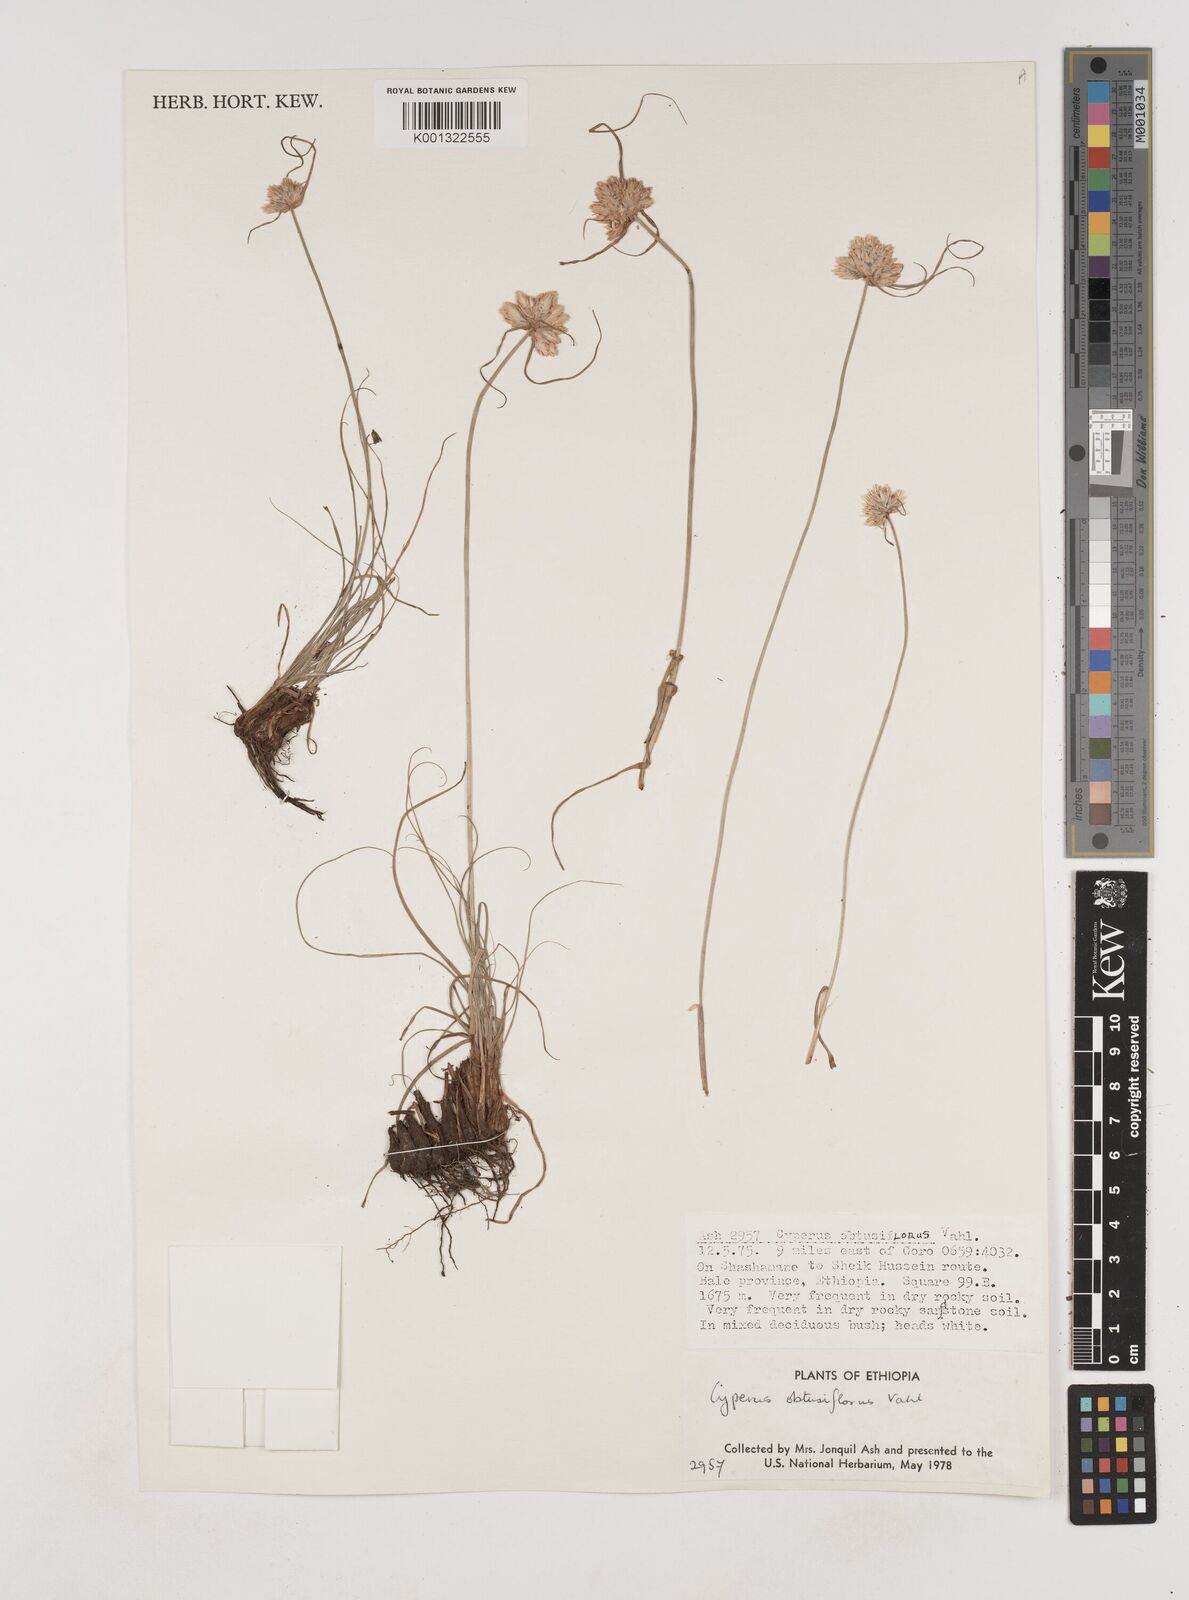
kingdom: Plantae
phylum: Tracheophyta
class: Liliopsida
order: Poales
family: Cyperaceae
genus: Cyperus
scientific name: Cyperus niveus
